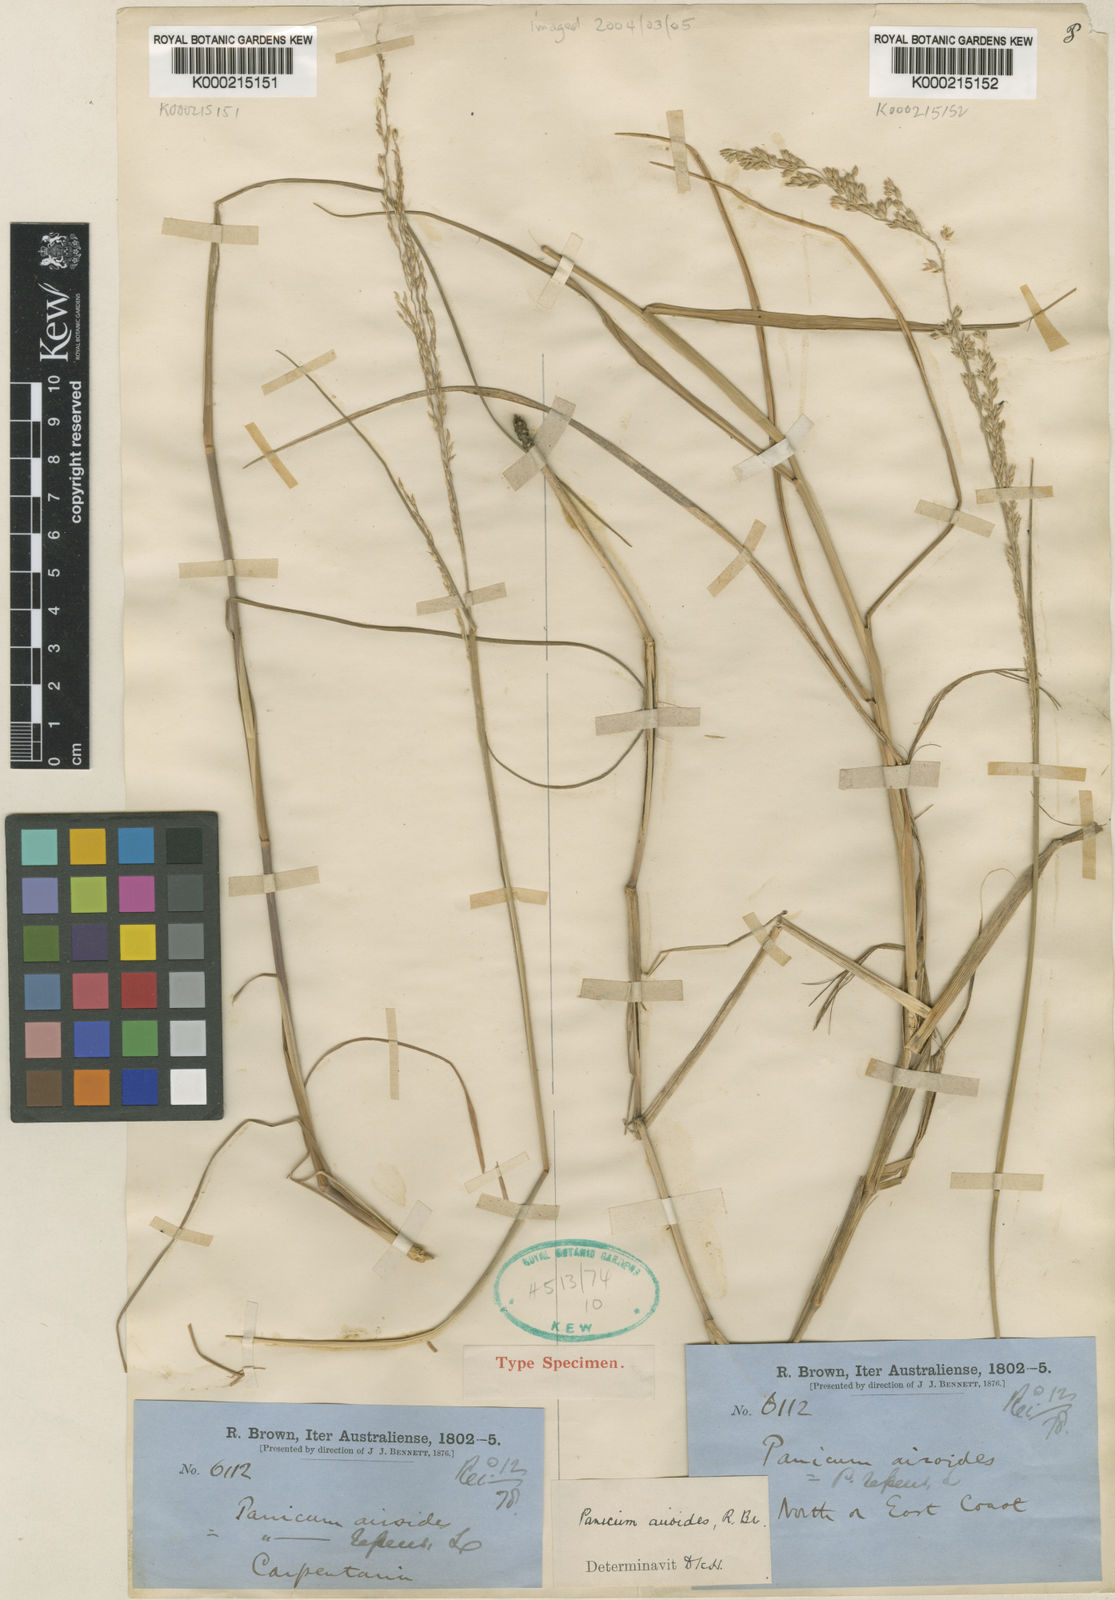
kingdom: Plantae
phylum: Tracheophyta
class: Liliopsida
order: Poales
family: Poaceae
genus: Whiteochloa
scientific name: Whiteochloa airoides
